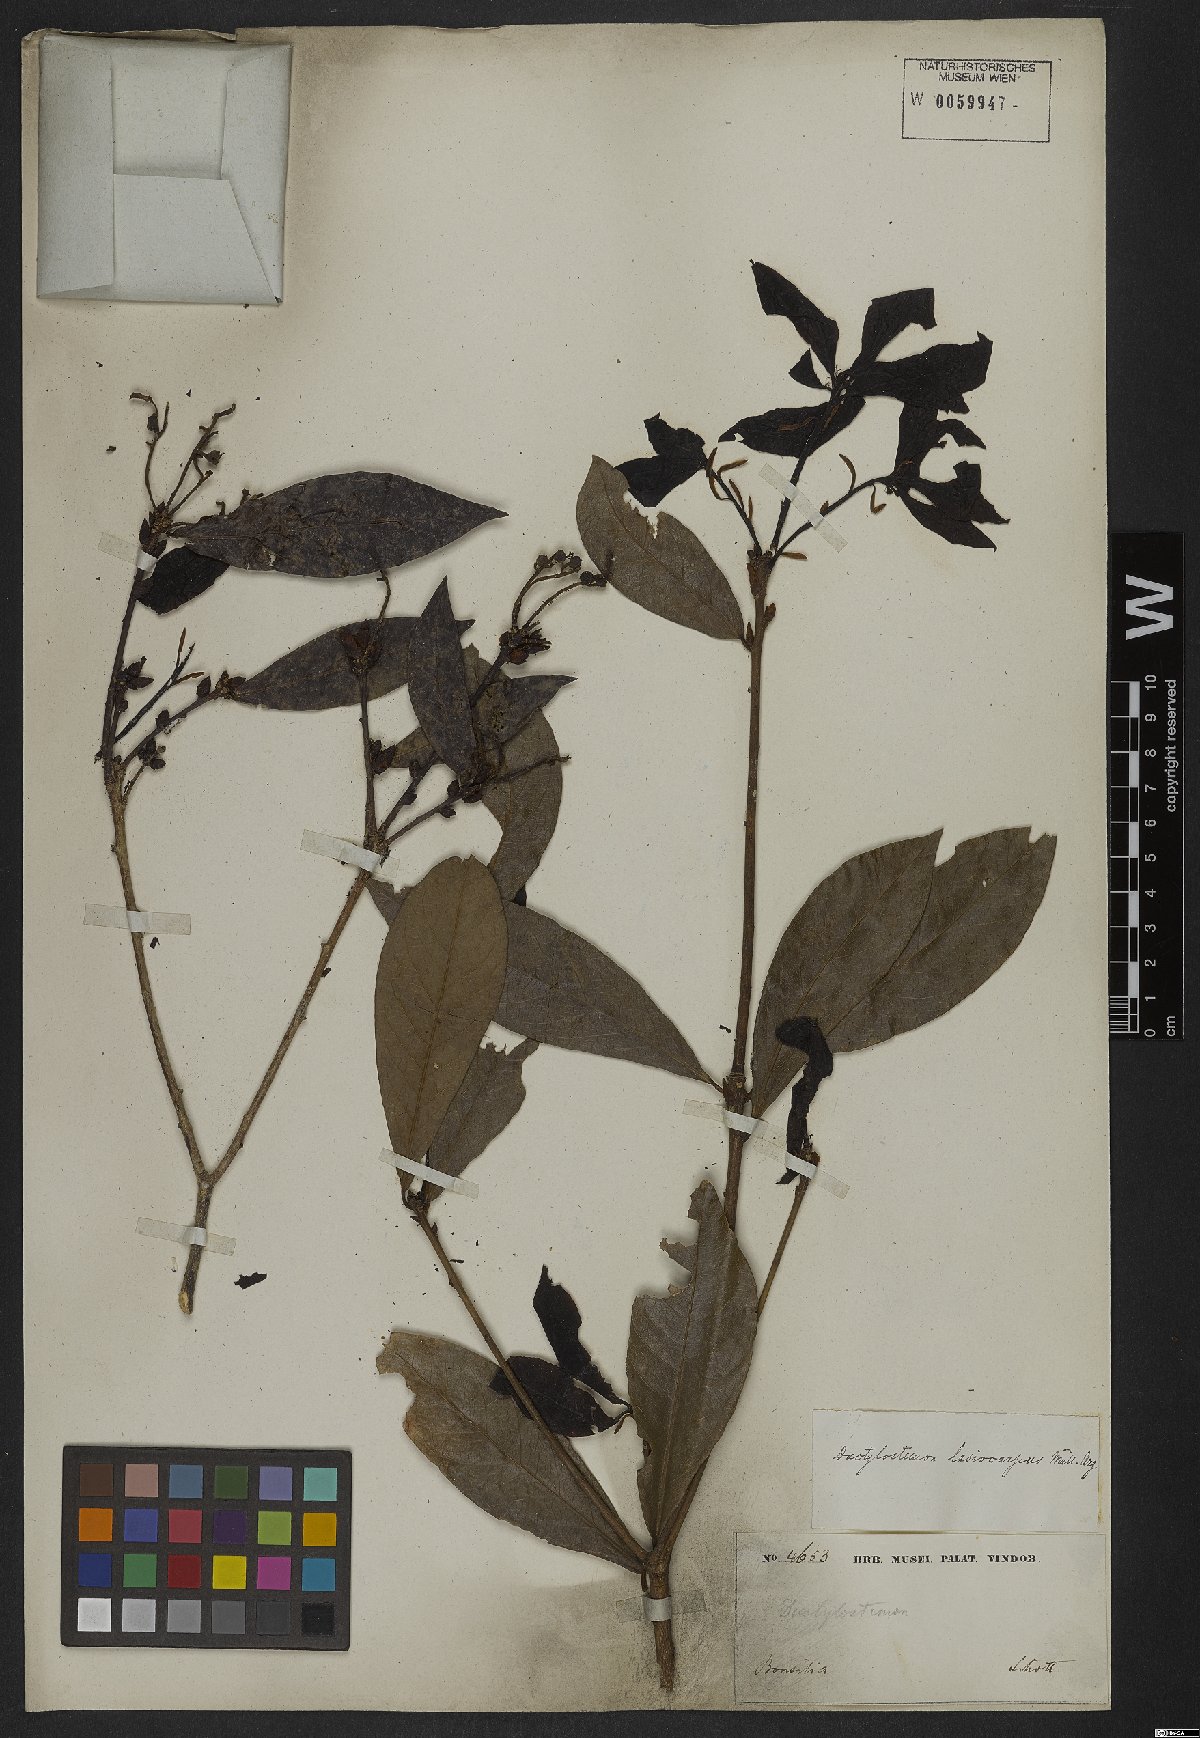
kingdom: Plantae
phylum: Tracheophyta
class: Magnoliopsida
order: Malpighiales
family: Euphorbiaceae
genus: Actinostemon
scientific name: Actinostemon lasiocarpus
